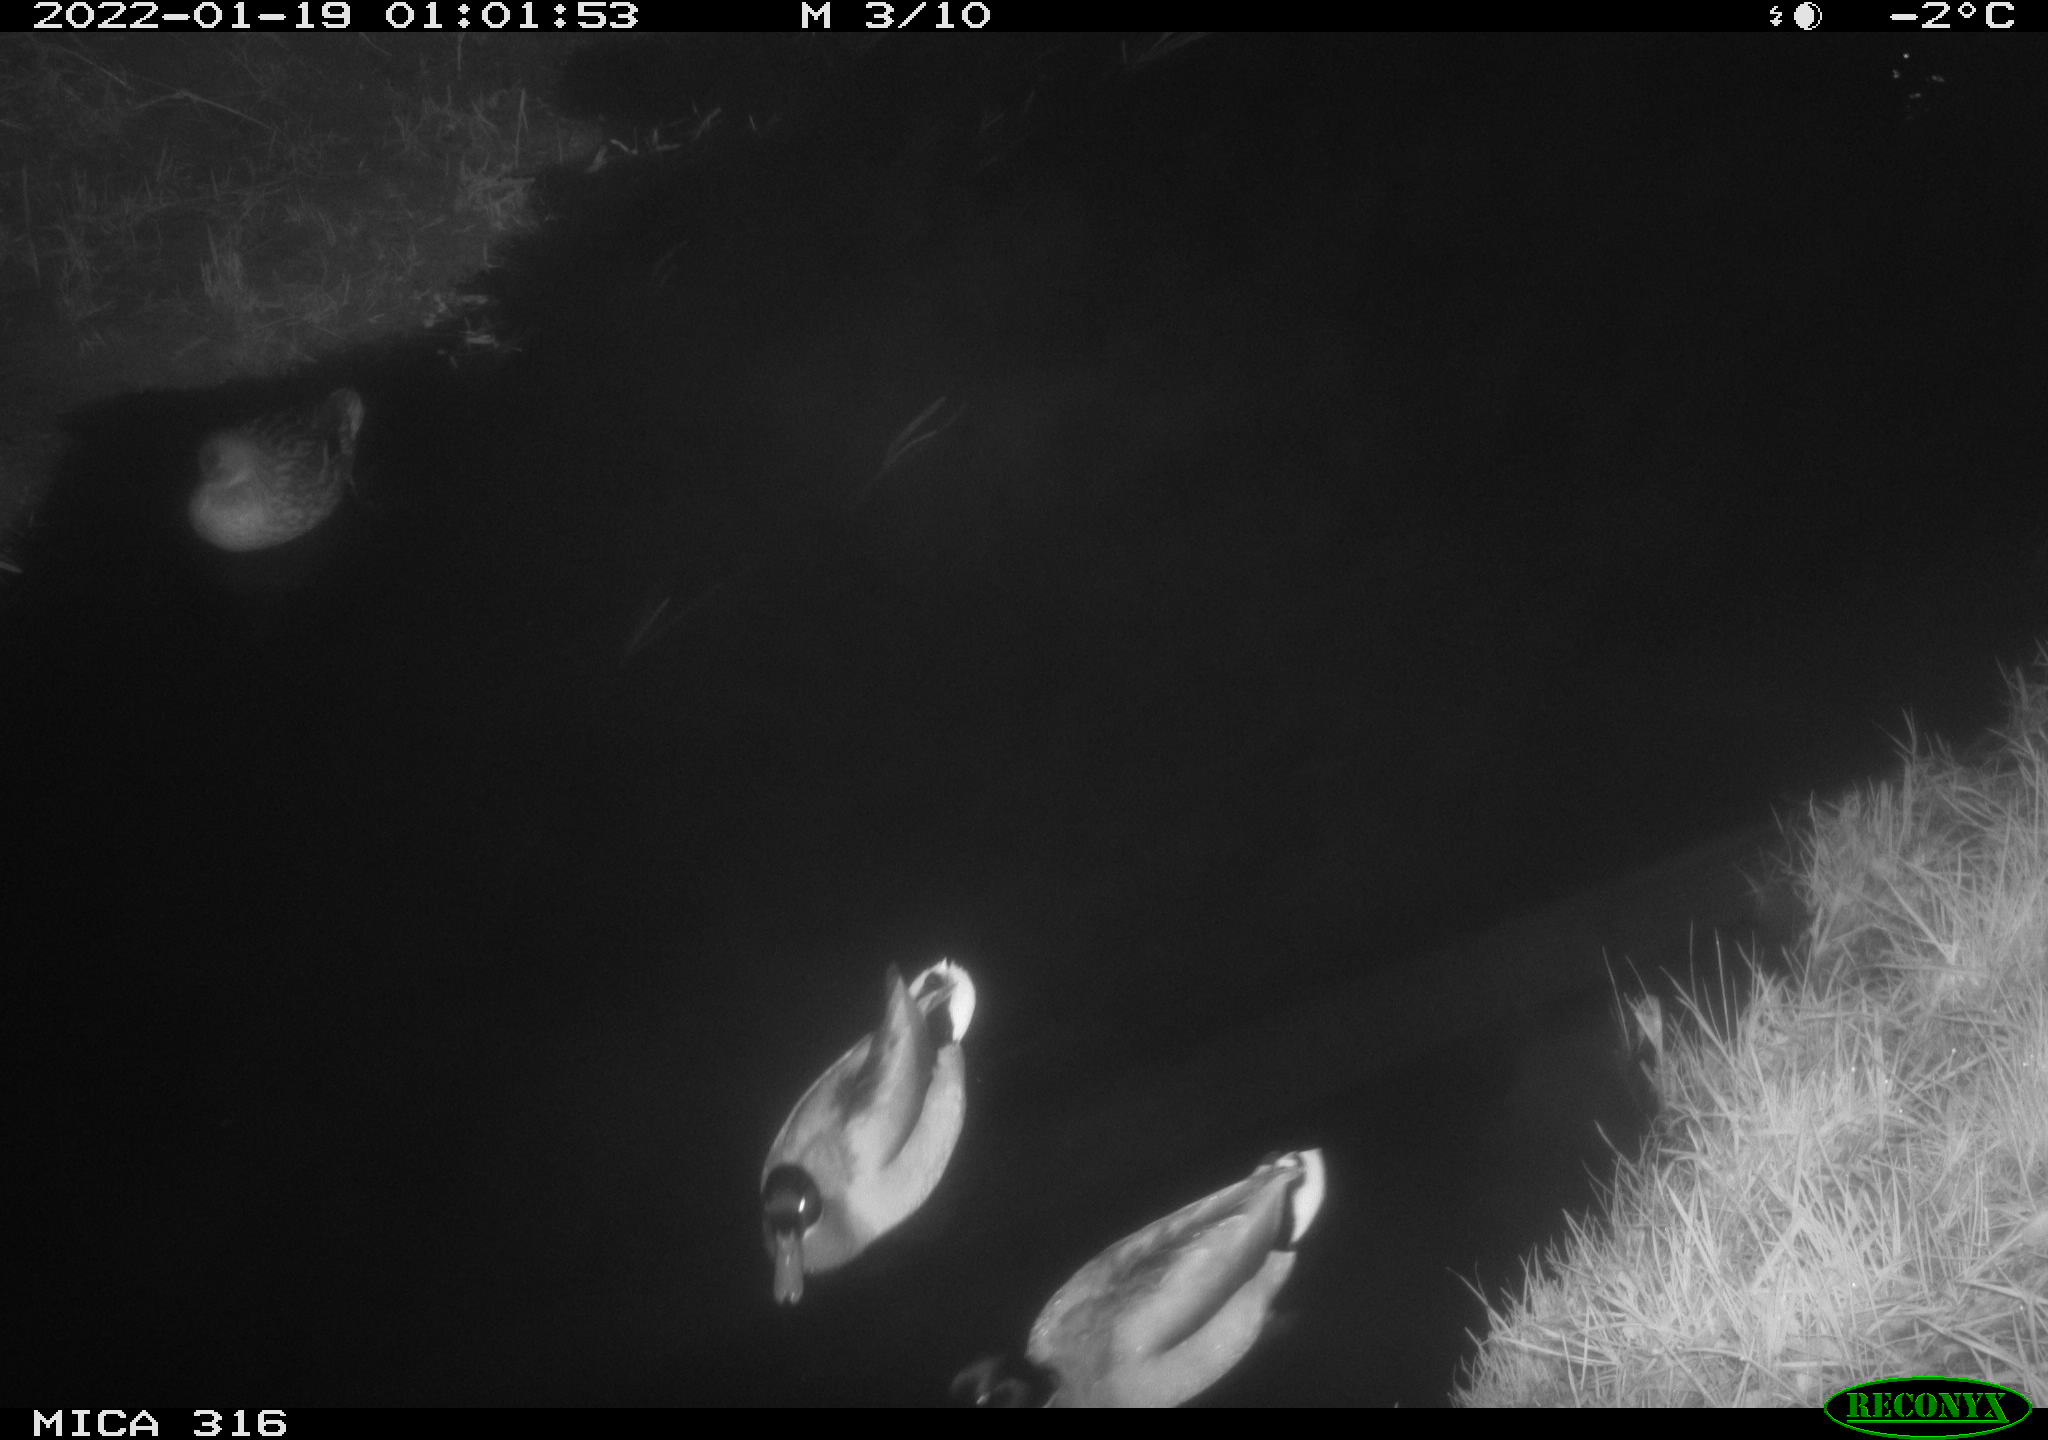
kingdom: Animalia
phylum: Chordata
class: Aves
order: Anseriformes
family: Anatidae
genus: Anas
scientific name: Anas
